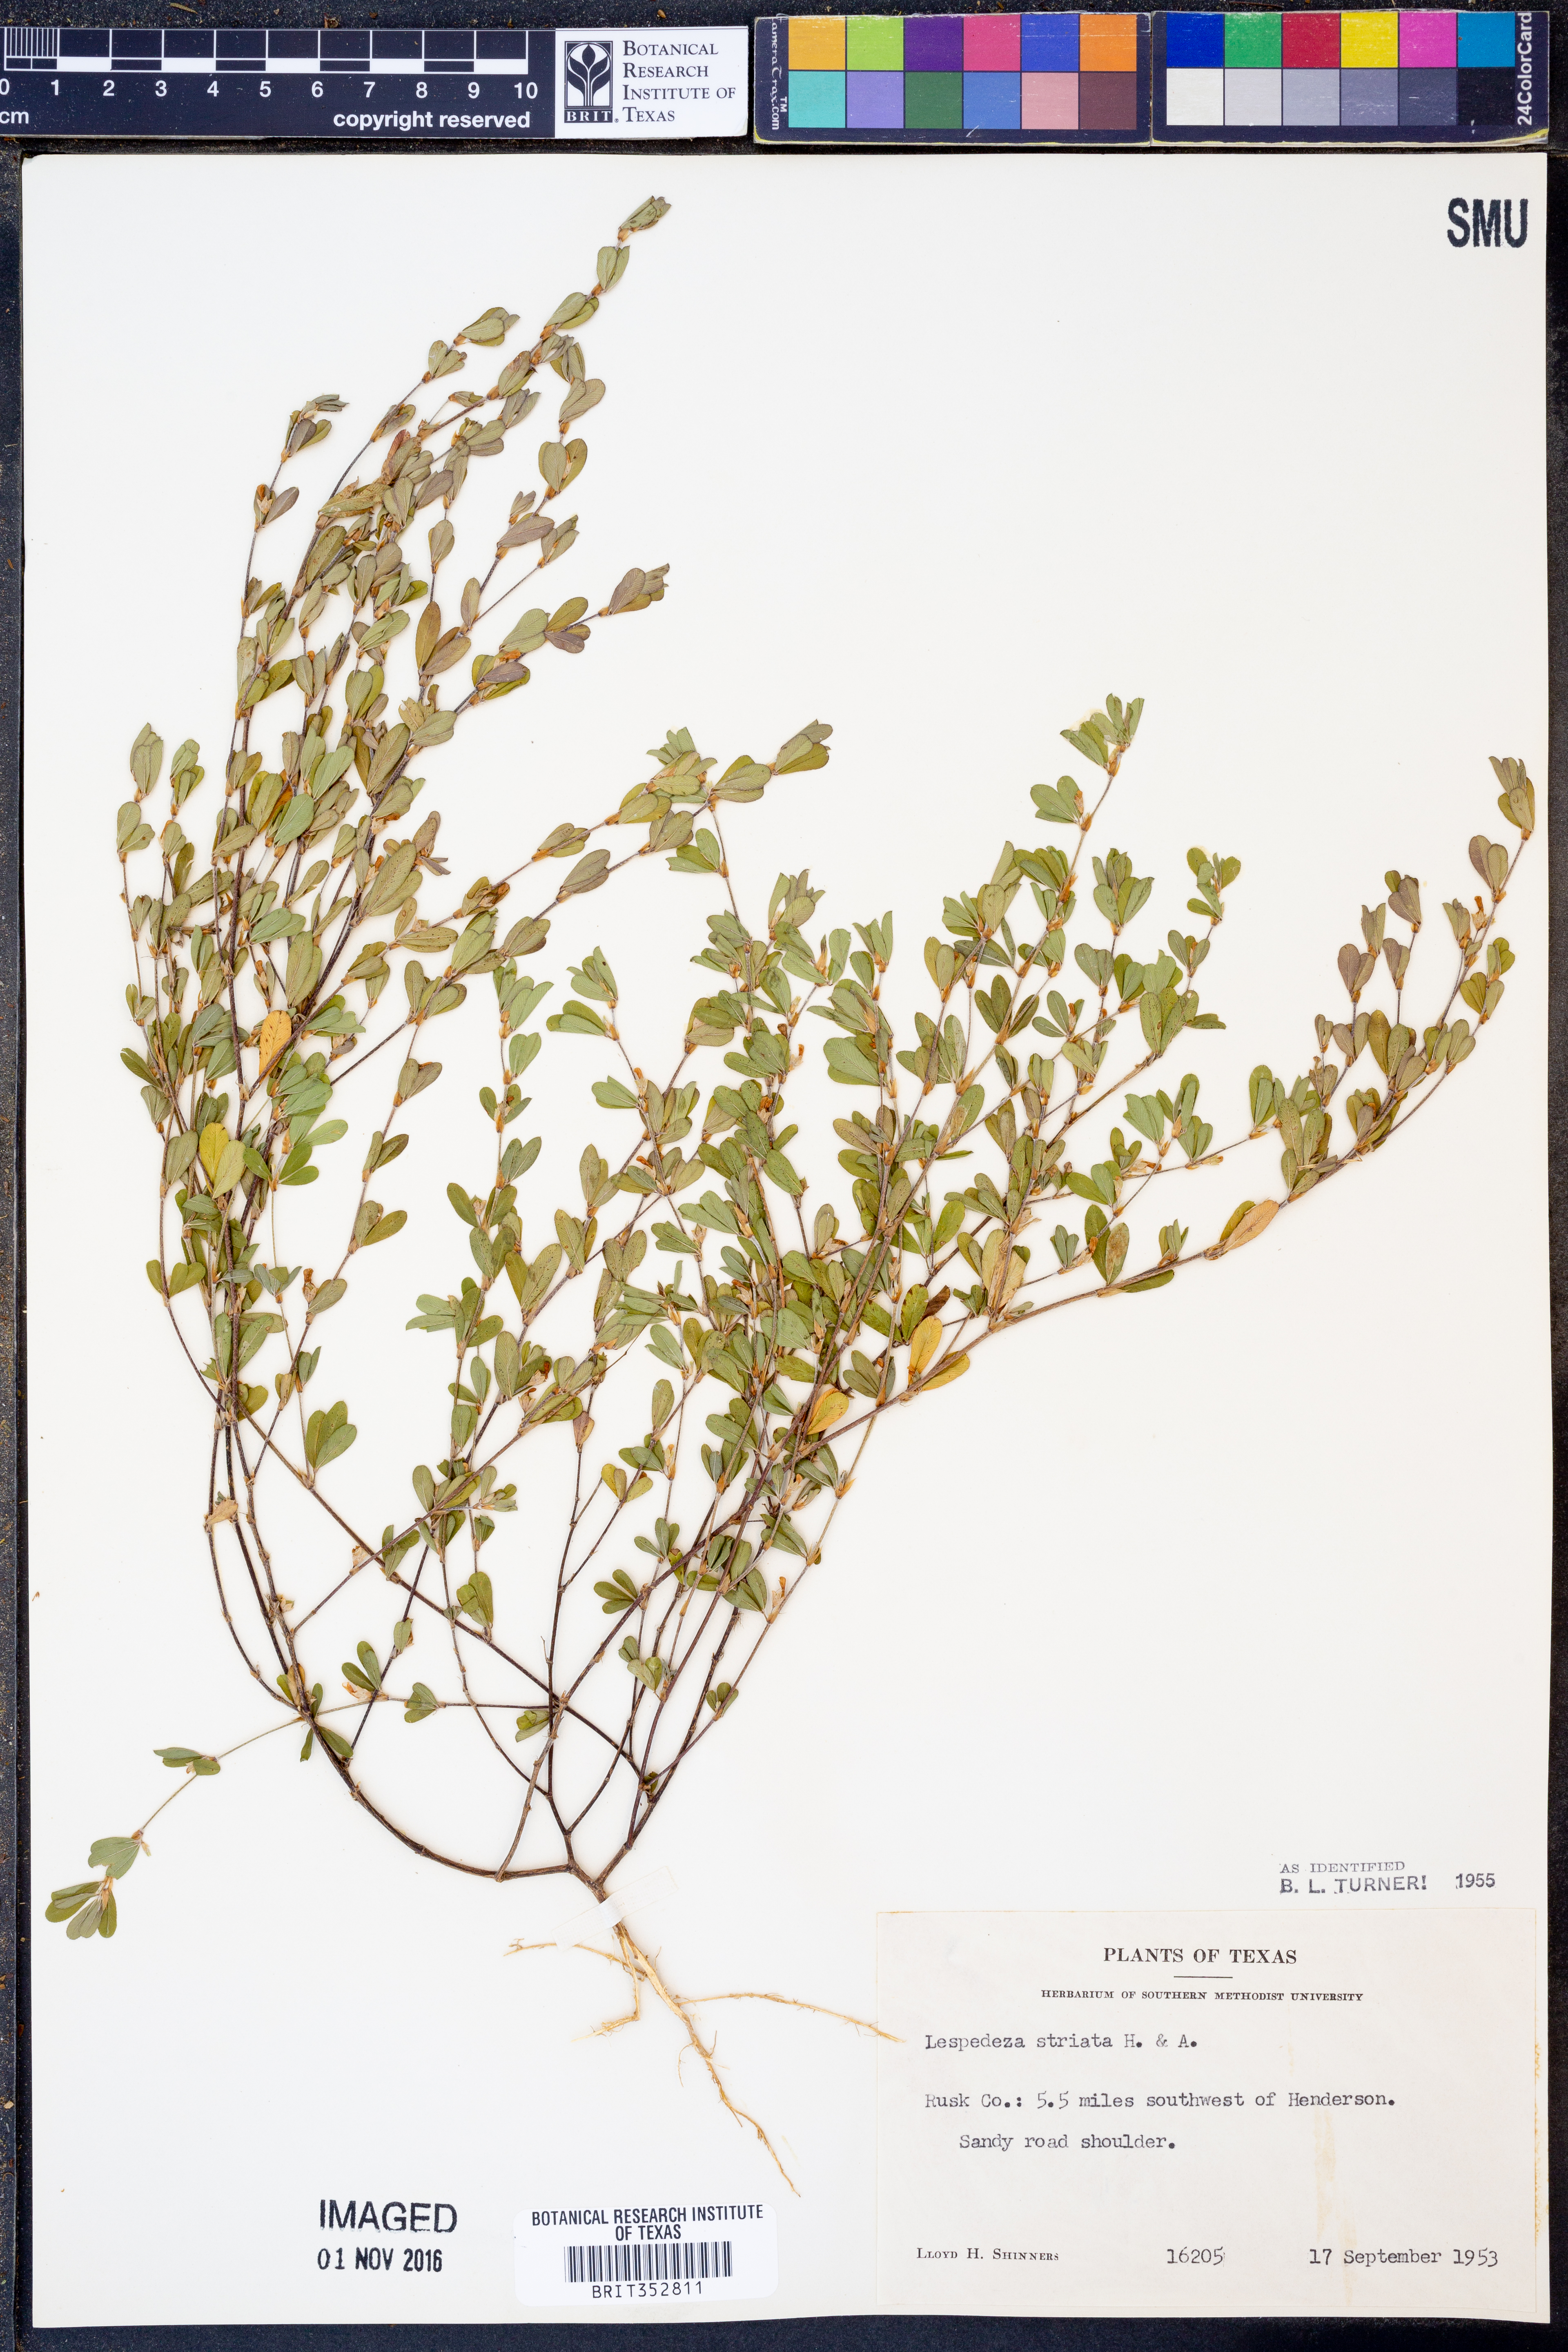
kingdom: Plantae
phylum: Tracheophyta
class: Magnoliopsida
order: Fabales
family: Fabaceae
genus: Kummerowia
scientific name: Kummerowia striata
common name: Japanese clover
